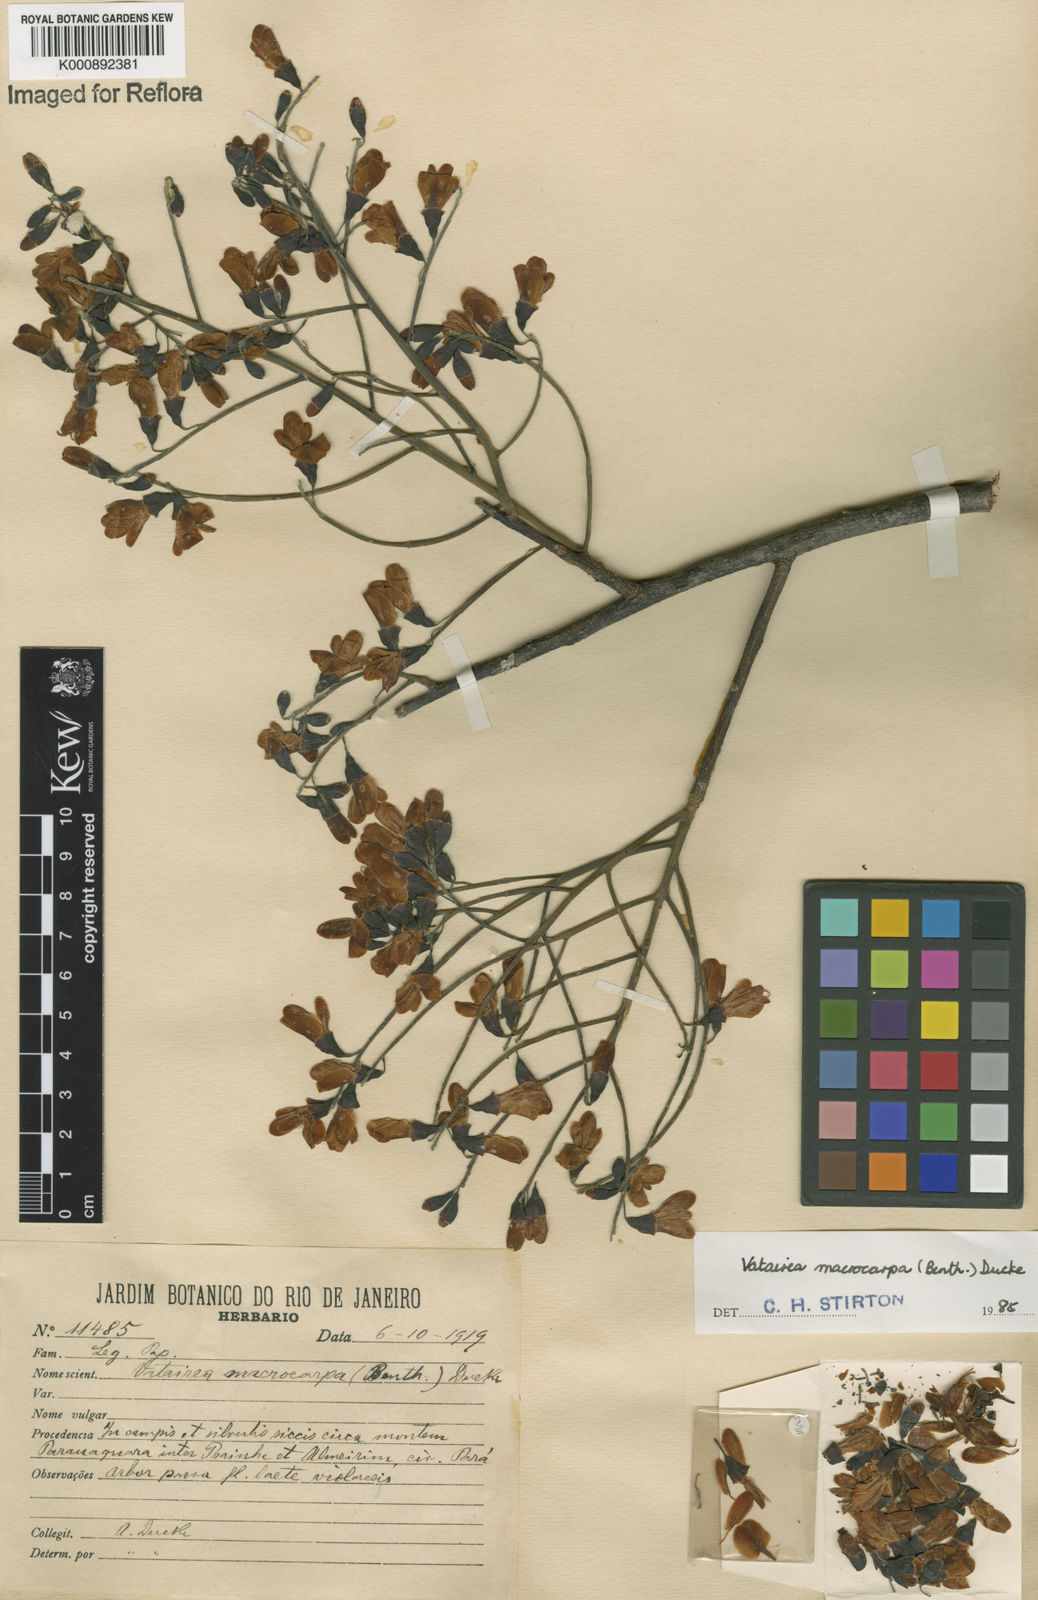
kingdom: Plantae
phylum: Tracheophyta
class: Magnoliopsida
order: Fabales
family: Fabaceae
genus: Vatairea
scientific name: Vatairea macrocarpa
